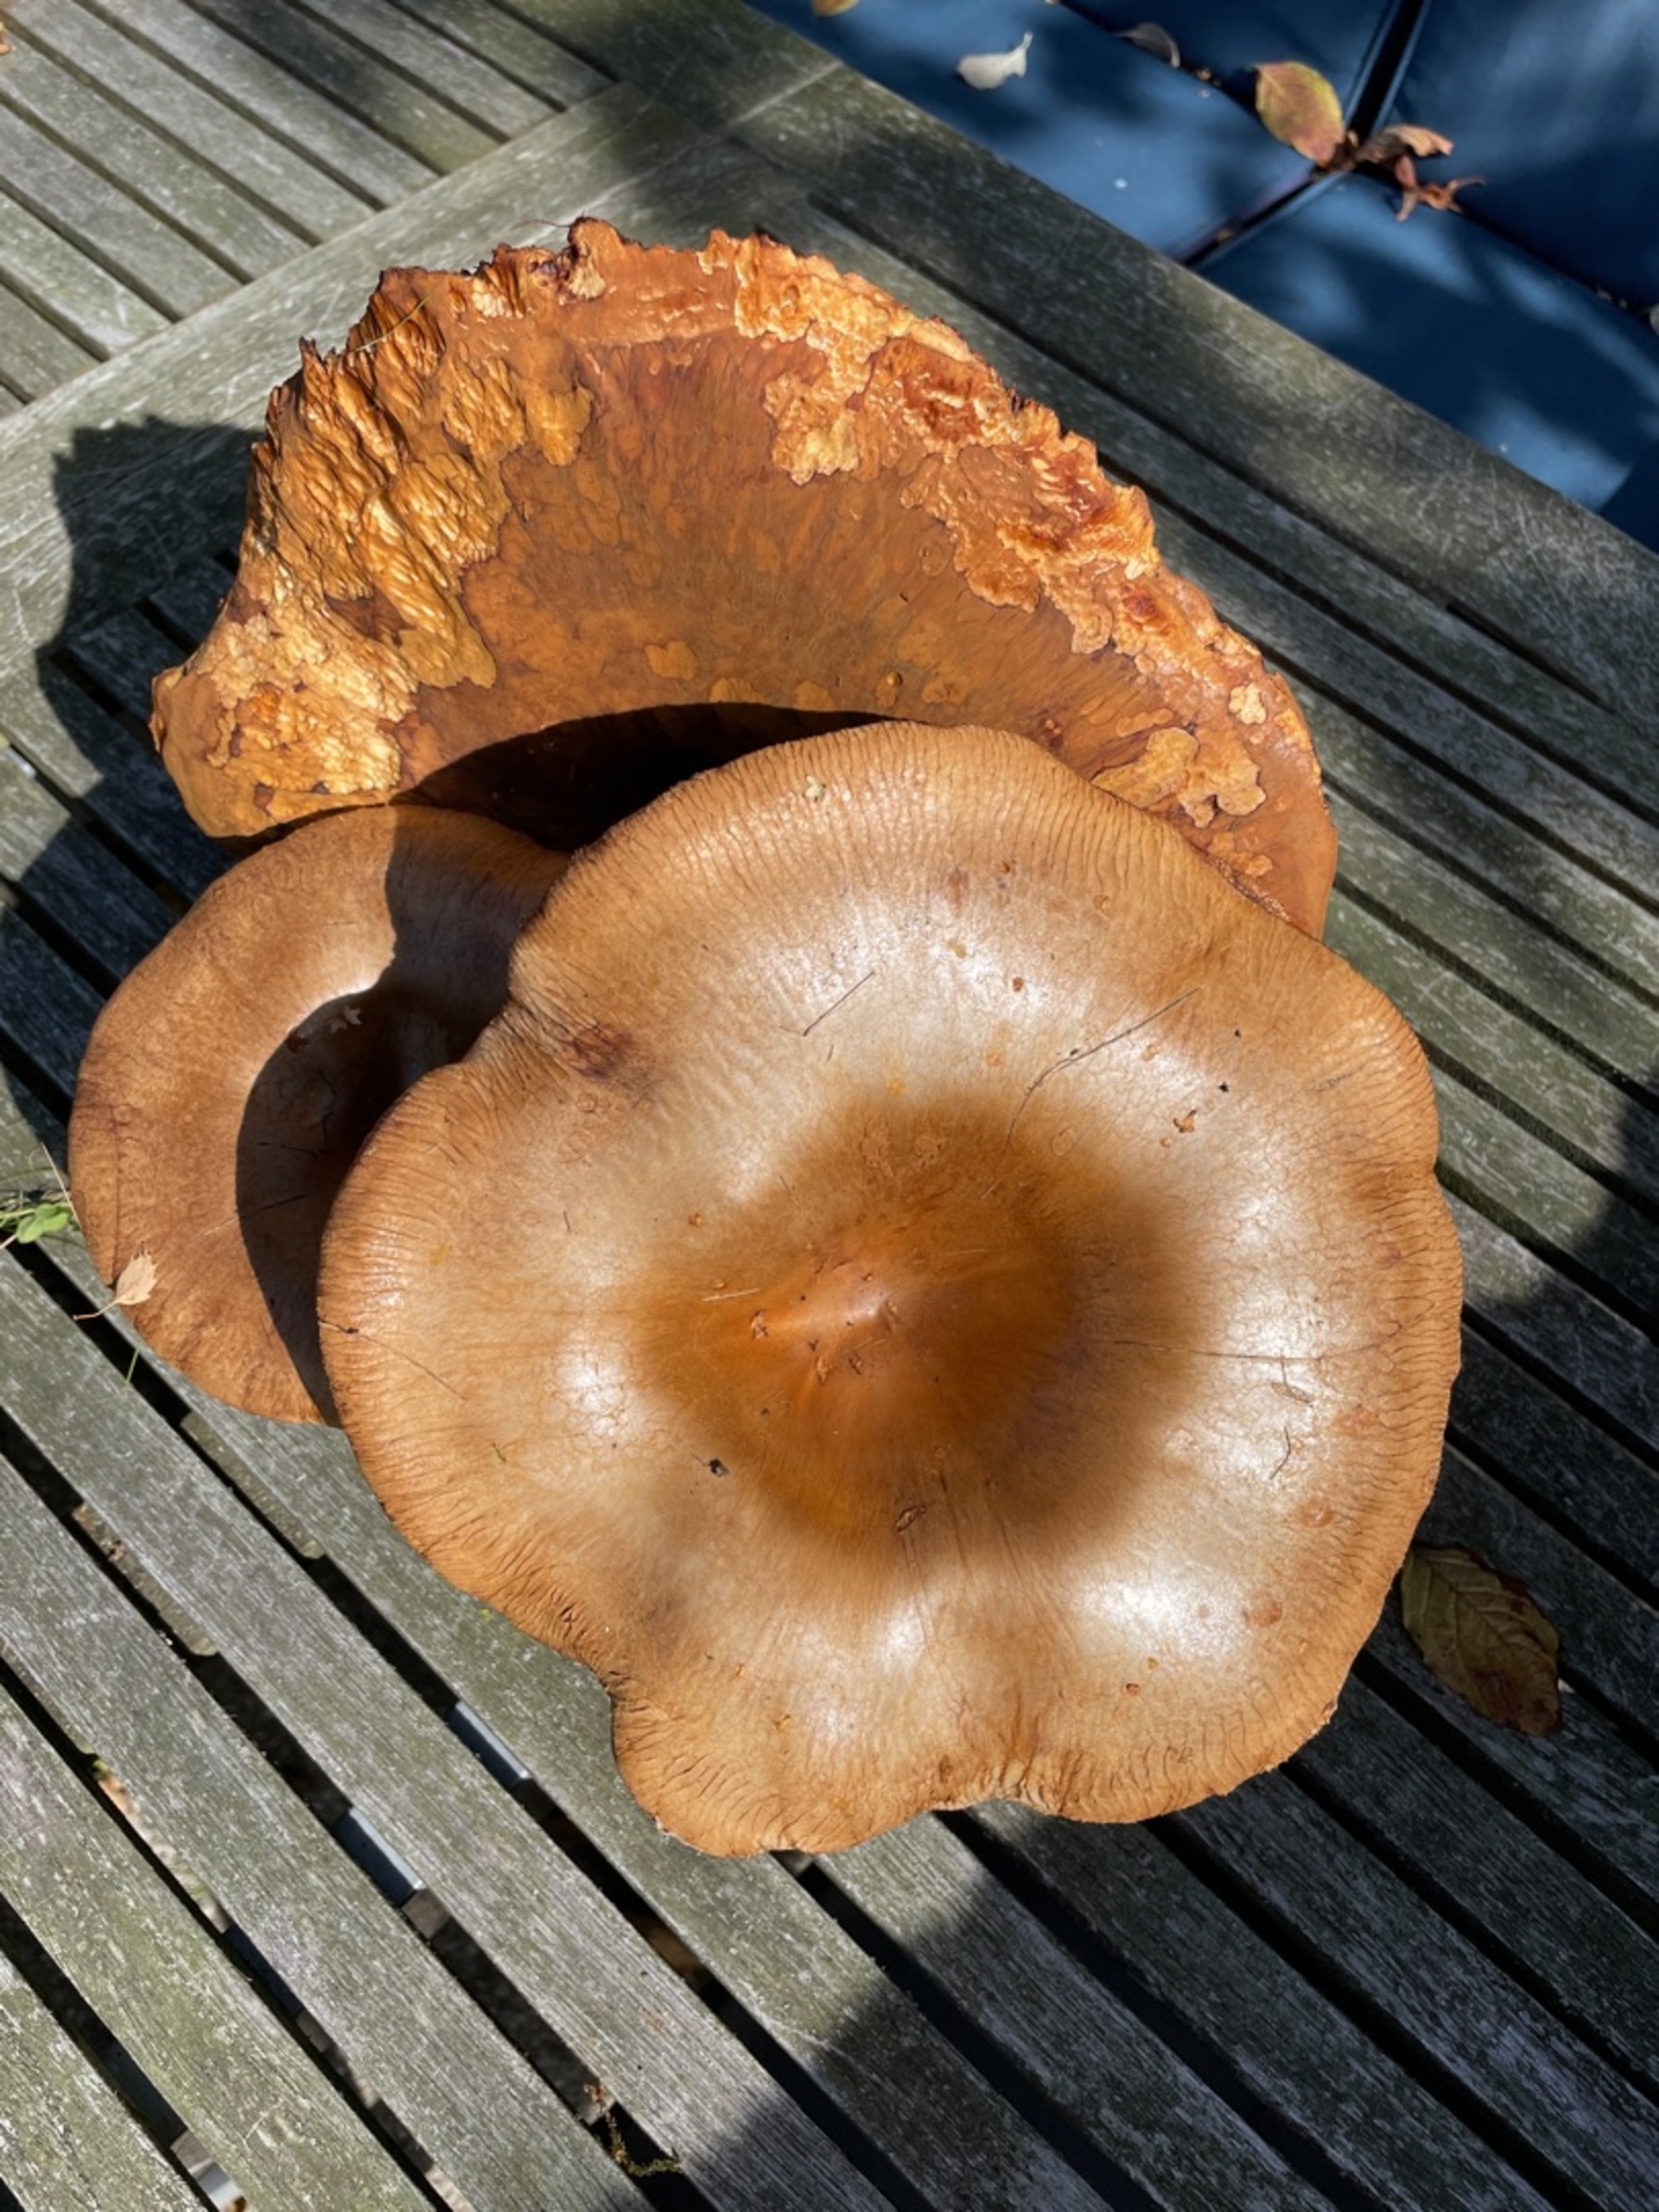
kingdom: Fungi
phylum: Basidiomycota
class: Agaricomycetes
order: Boletales
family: Paxillaceae
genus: Paxillus
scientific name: Paxillus
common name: Netbladhat
